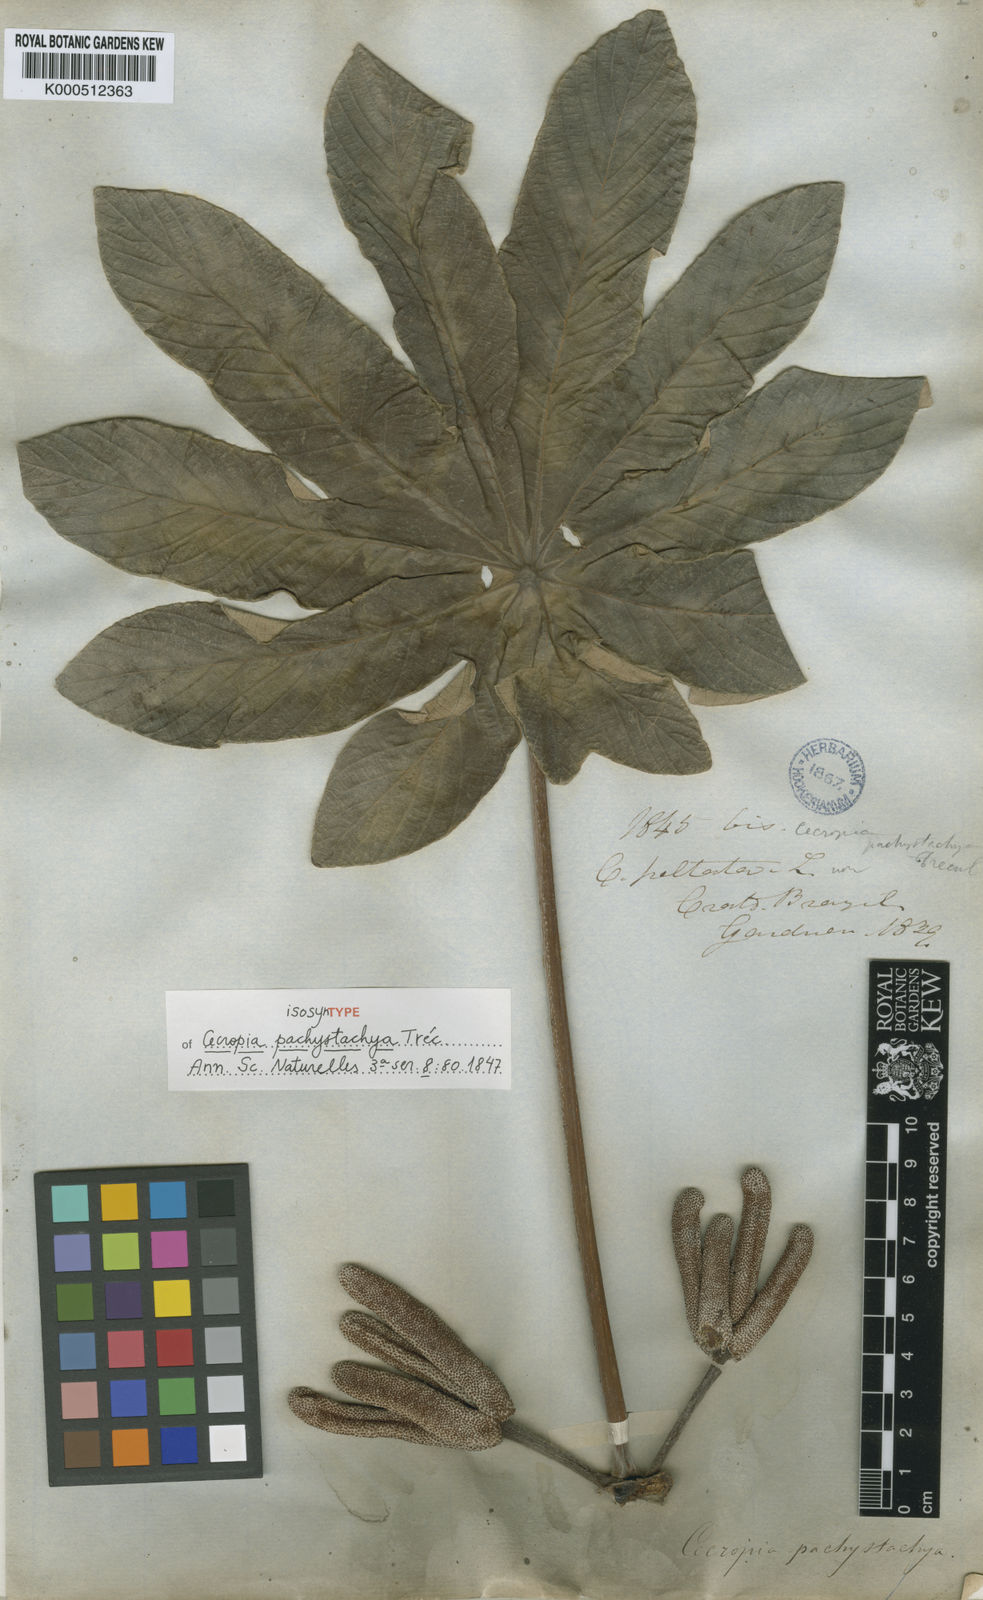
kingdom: Plantae
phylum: Tracheophyta
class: Magnoliopsida
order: Rosales
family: Urticaceae
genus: Cecropia
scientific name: Cecropia
